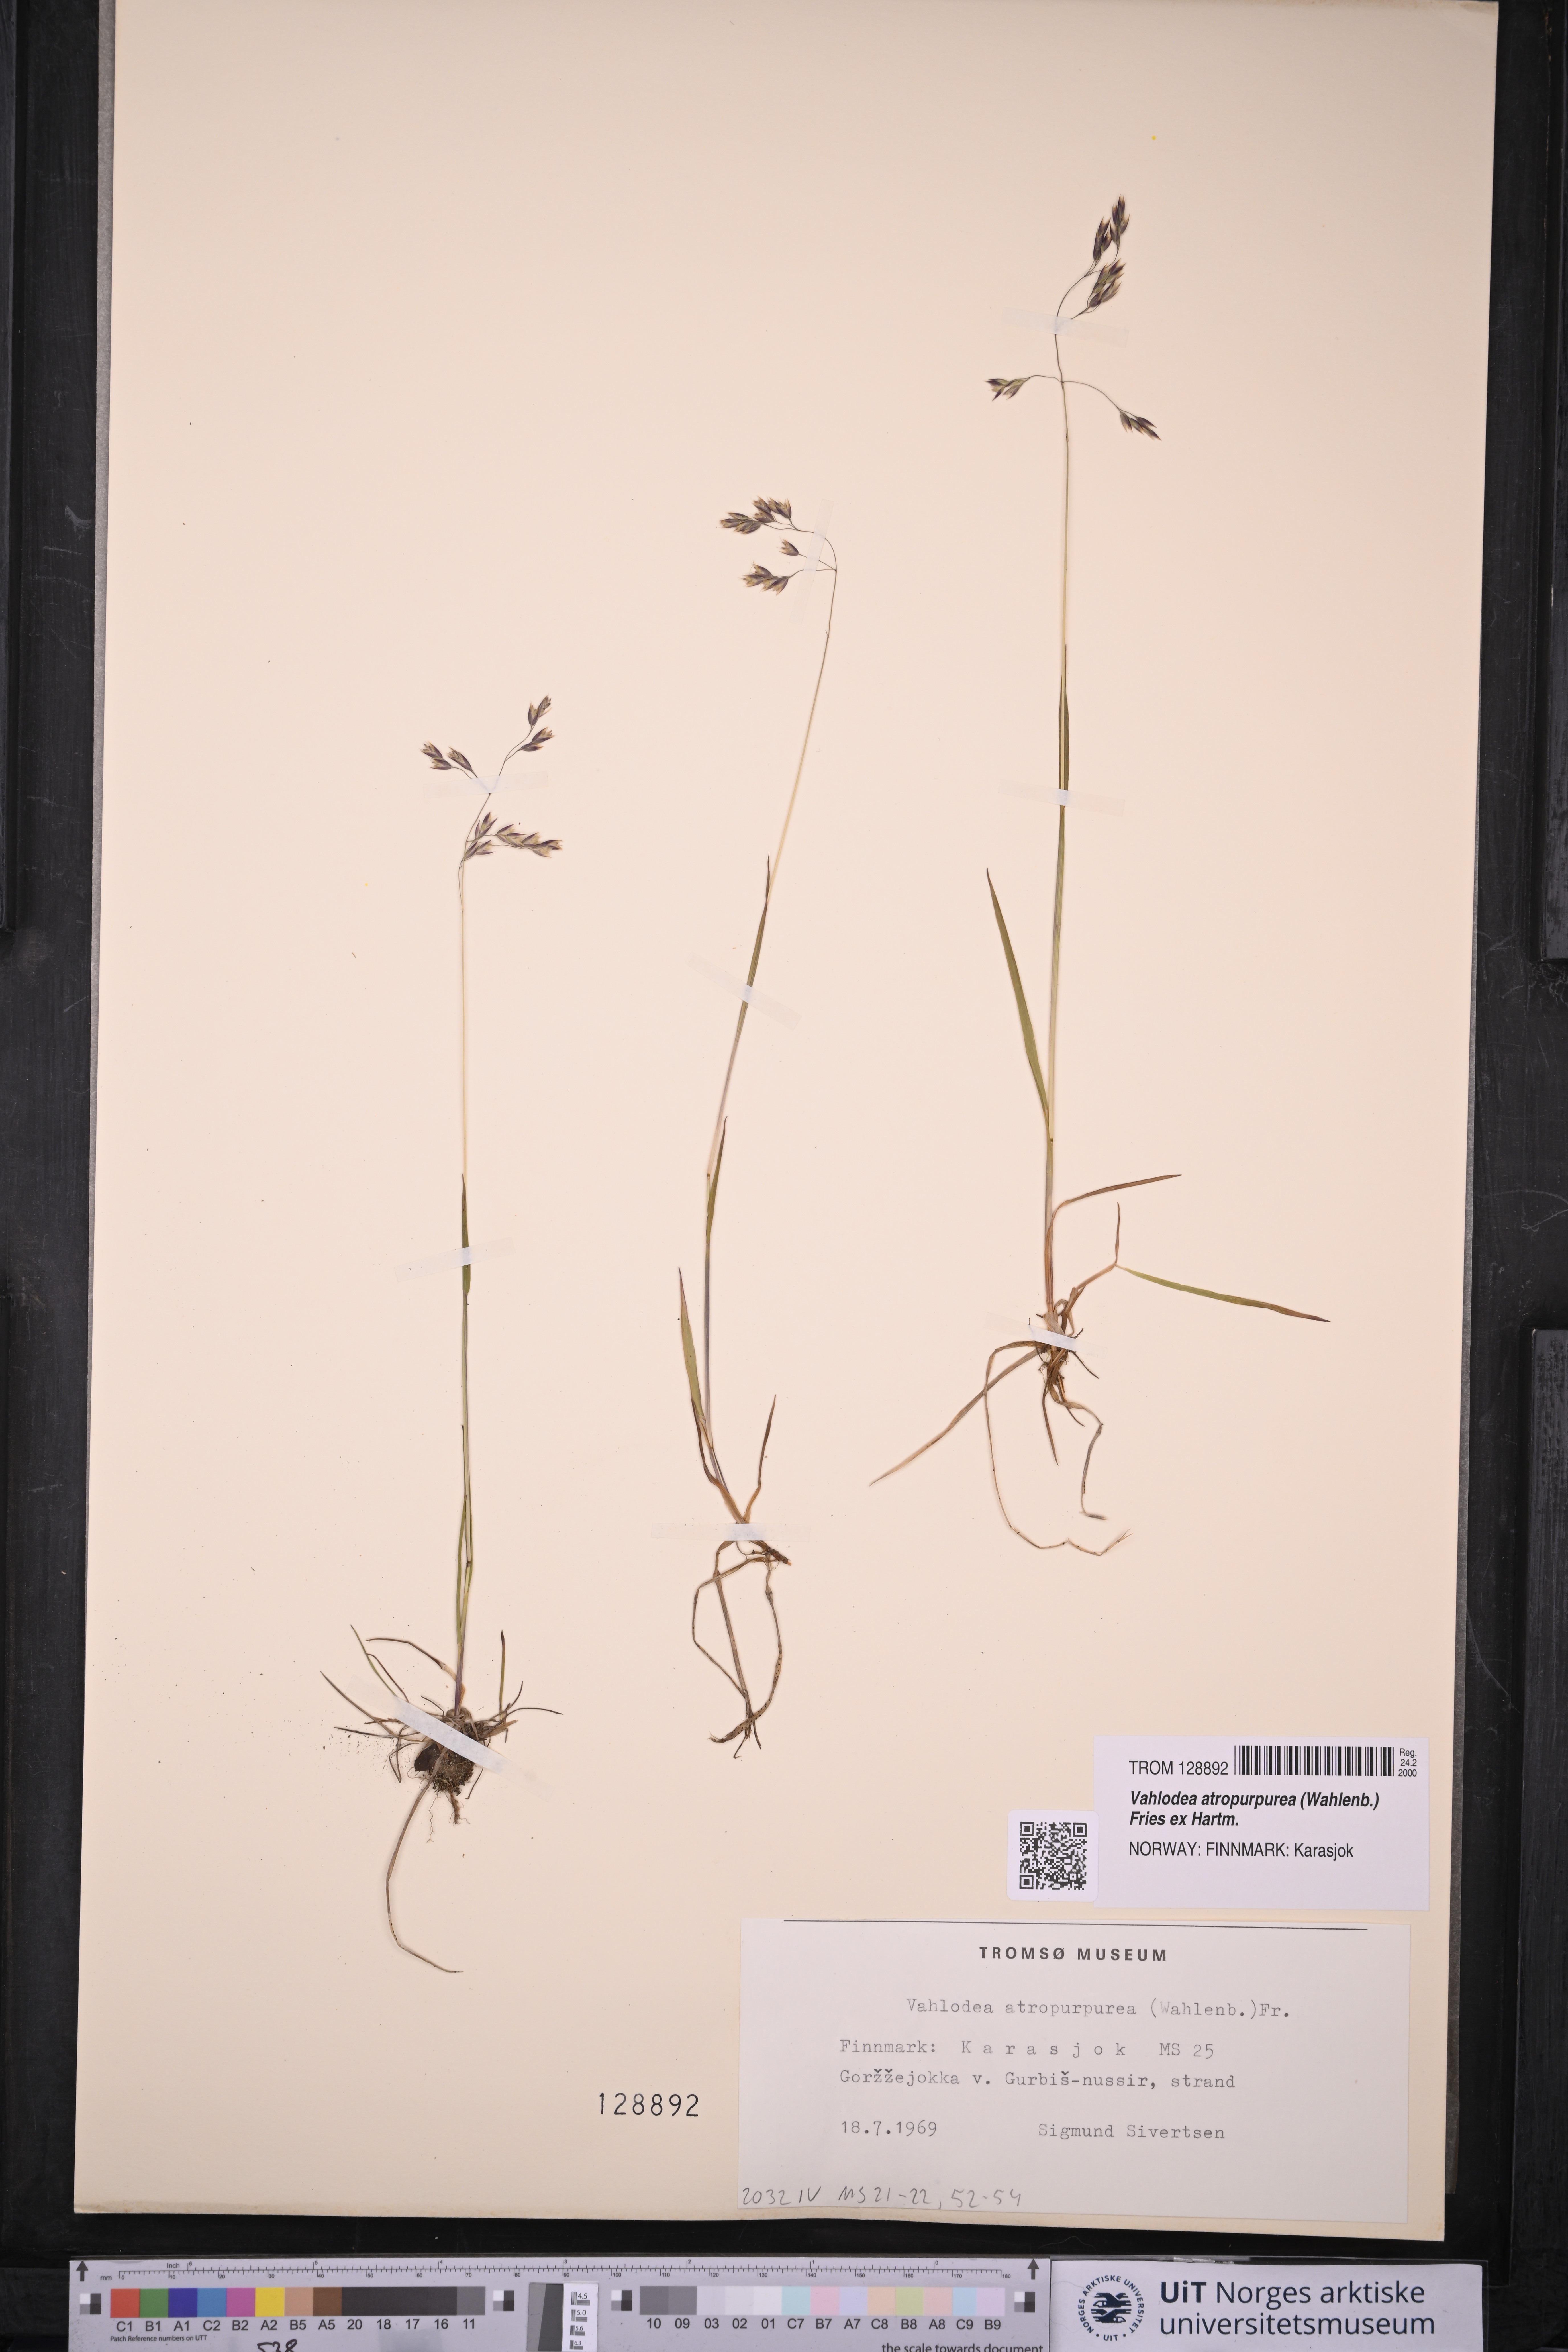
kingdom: Plantae
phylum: Tracheophyta
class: Liliopsida
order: Poales
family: Poaceae
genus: Vahlodea
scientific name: Vahlodea atropurpurea
